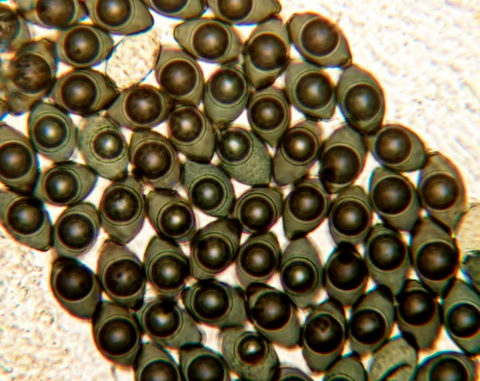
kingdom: Fungi
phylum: Ascomycota
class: Sordariomycetes
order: Sordariales
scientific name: Sordariales
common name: kernesvampordenen
